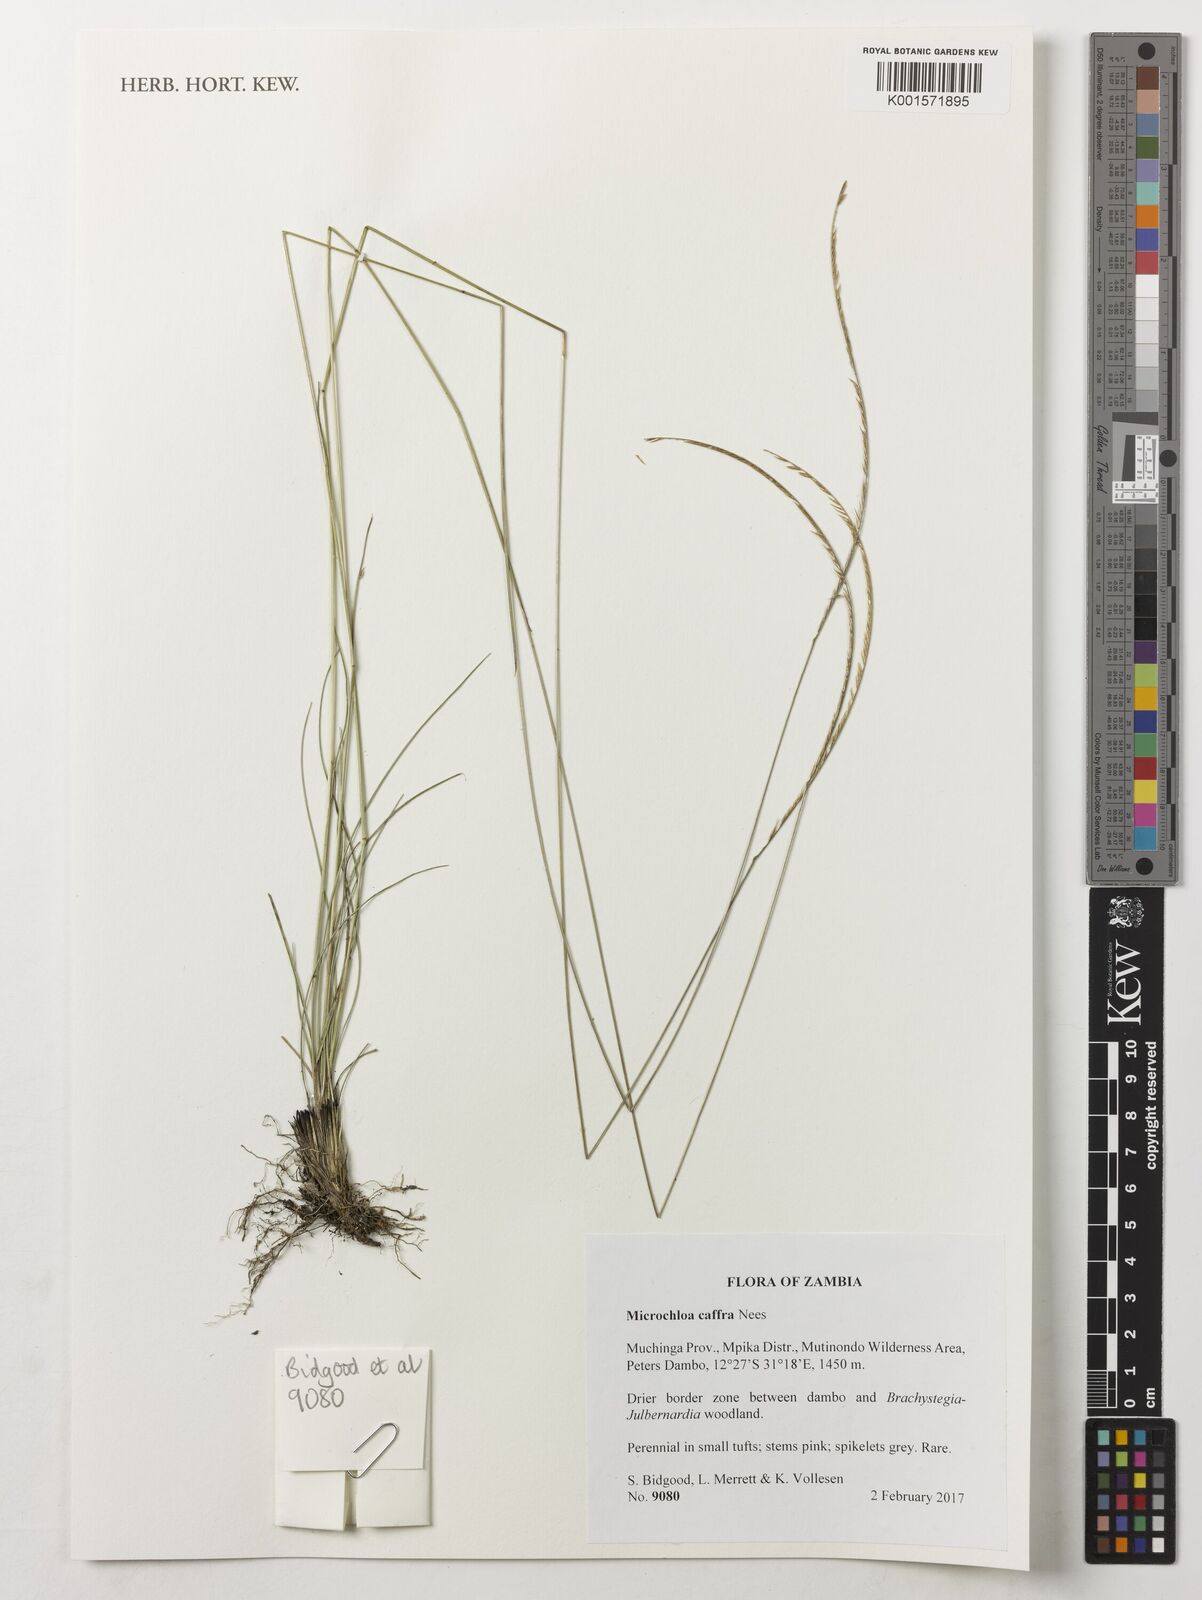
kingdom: Plantae
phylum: Tracheophyta
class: Liliopsida
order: Poales
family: Poaceae
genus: Microchloa
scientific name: Microchloa caffra
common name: Pincushion grass
